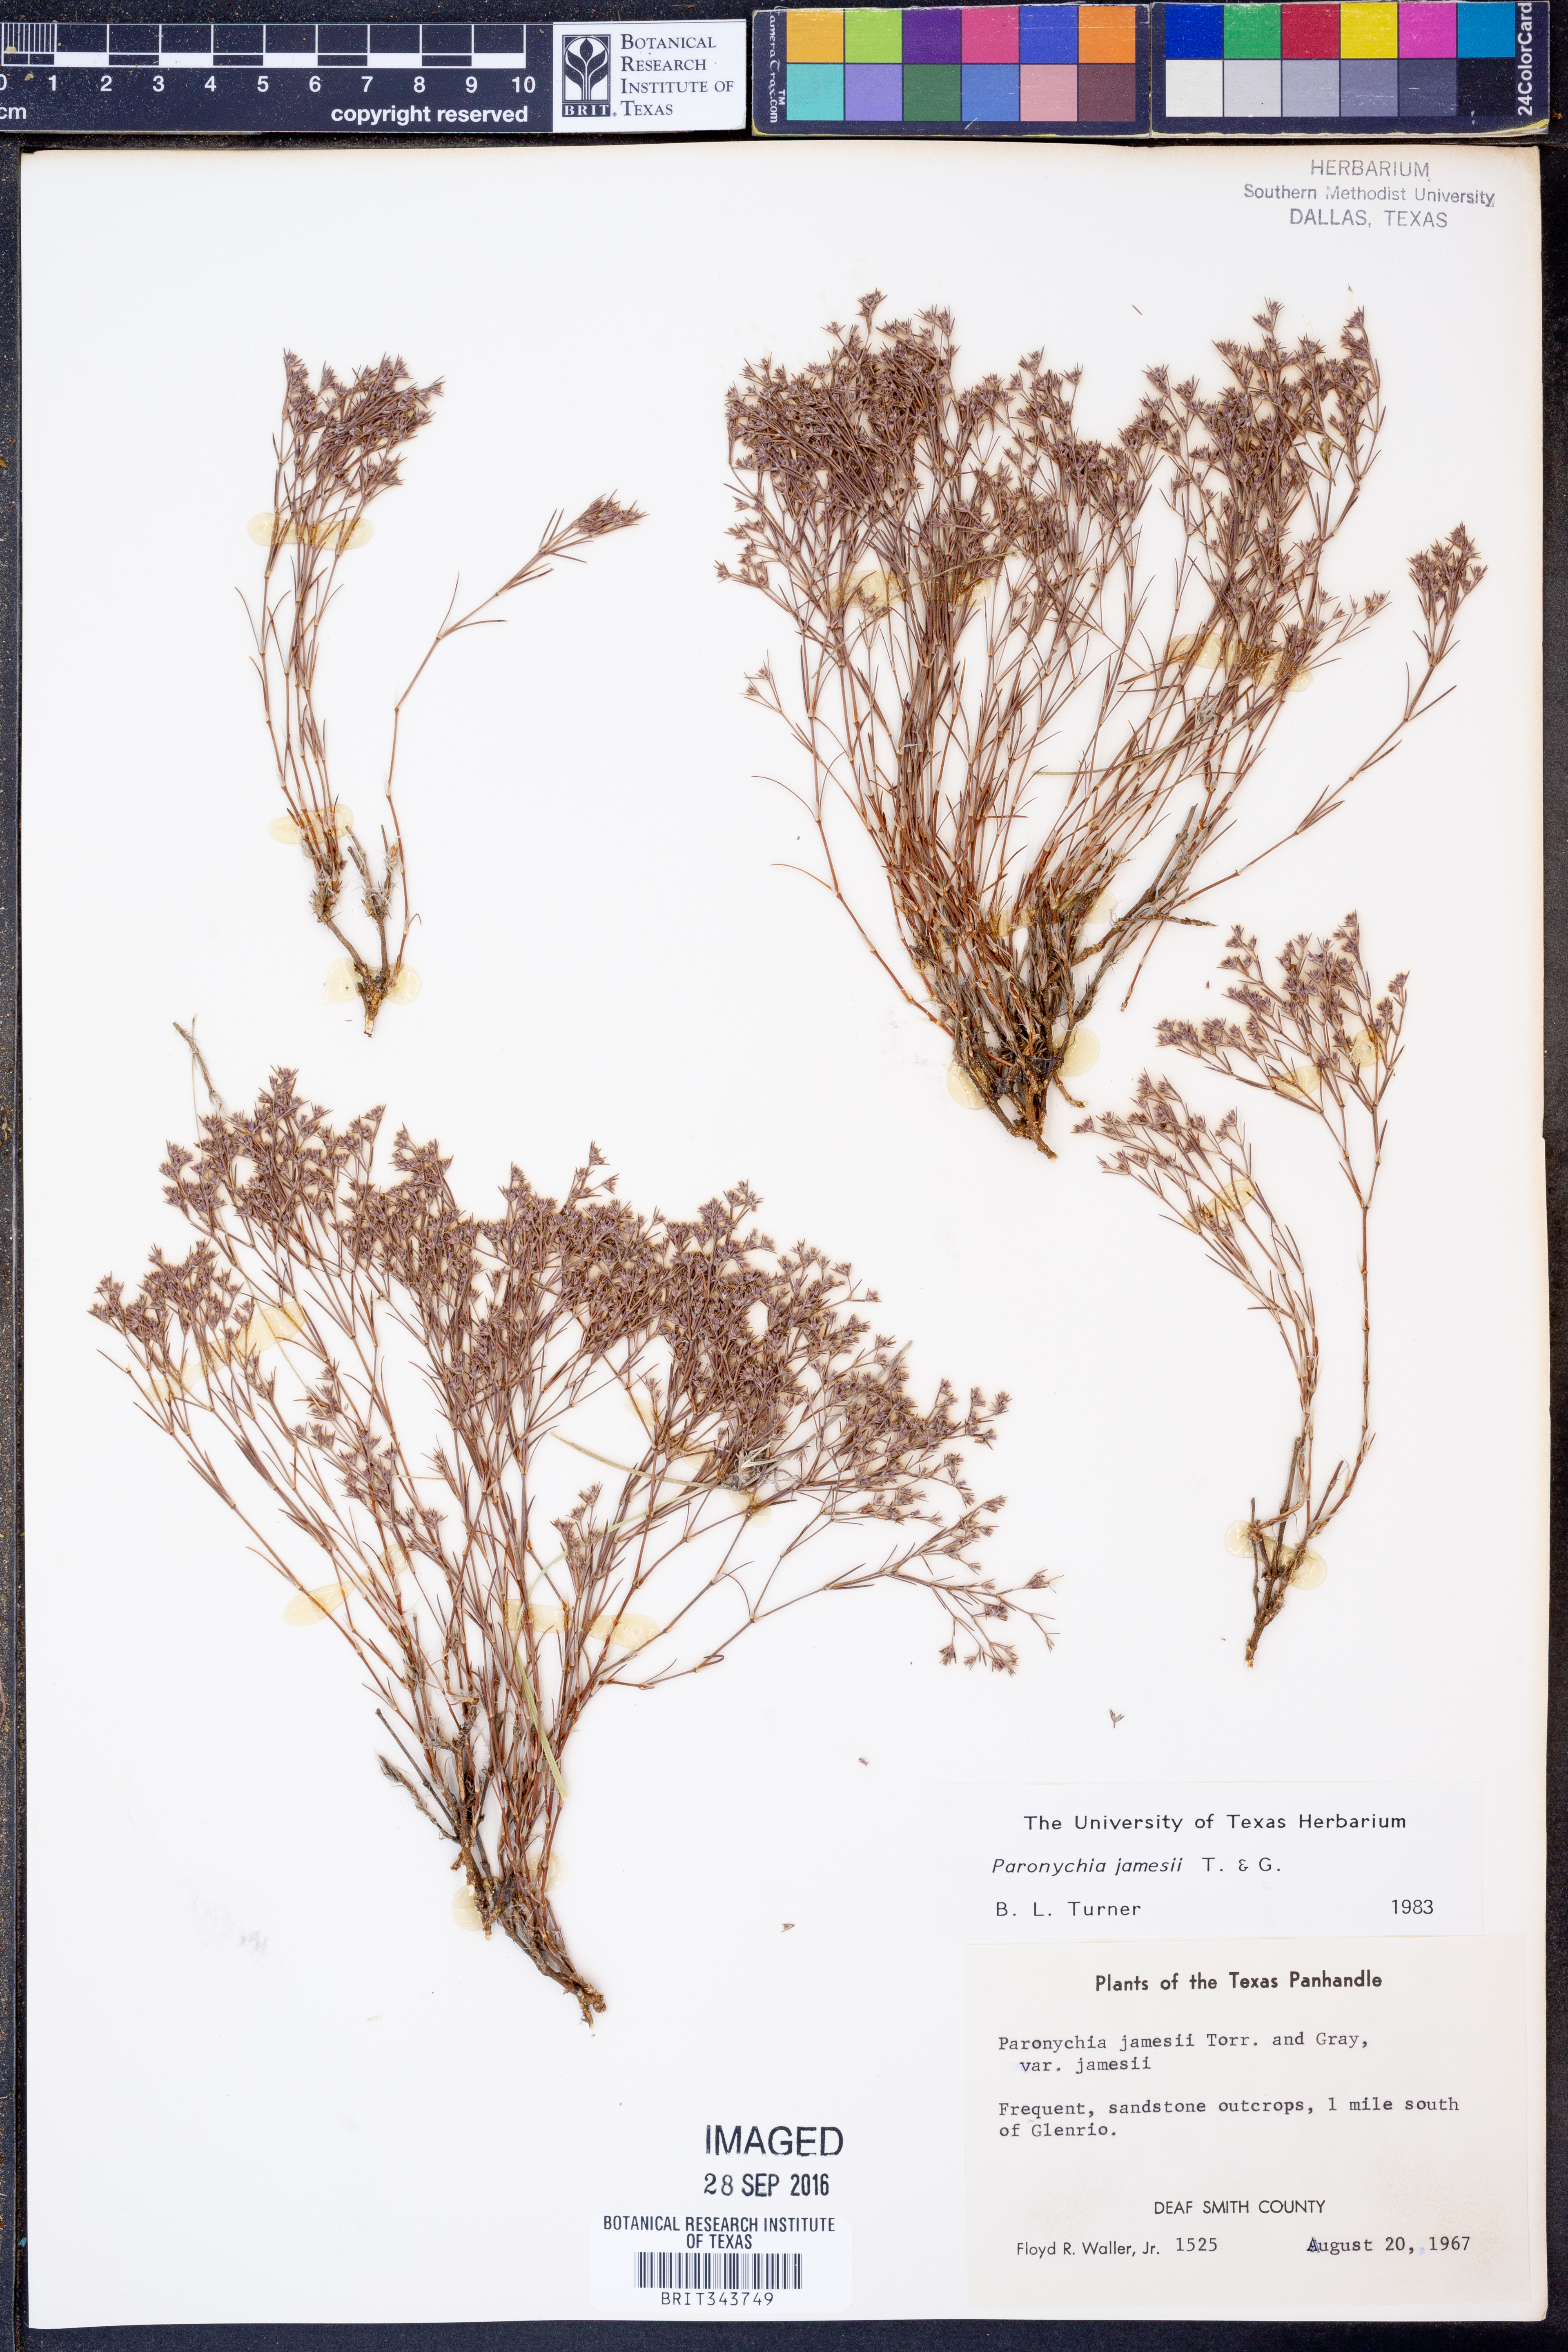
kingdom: Plantae
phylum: Tracheophyta
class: Magnoliopsida
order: Caryophyllales
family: Caryophyllaceae
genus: Paronychia
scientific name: Paronychia jamesii
